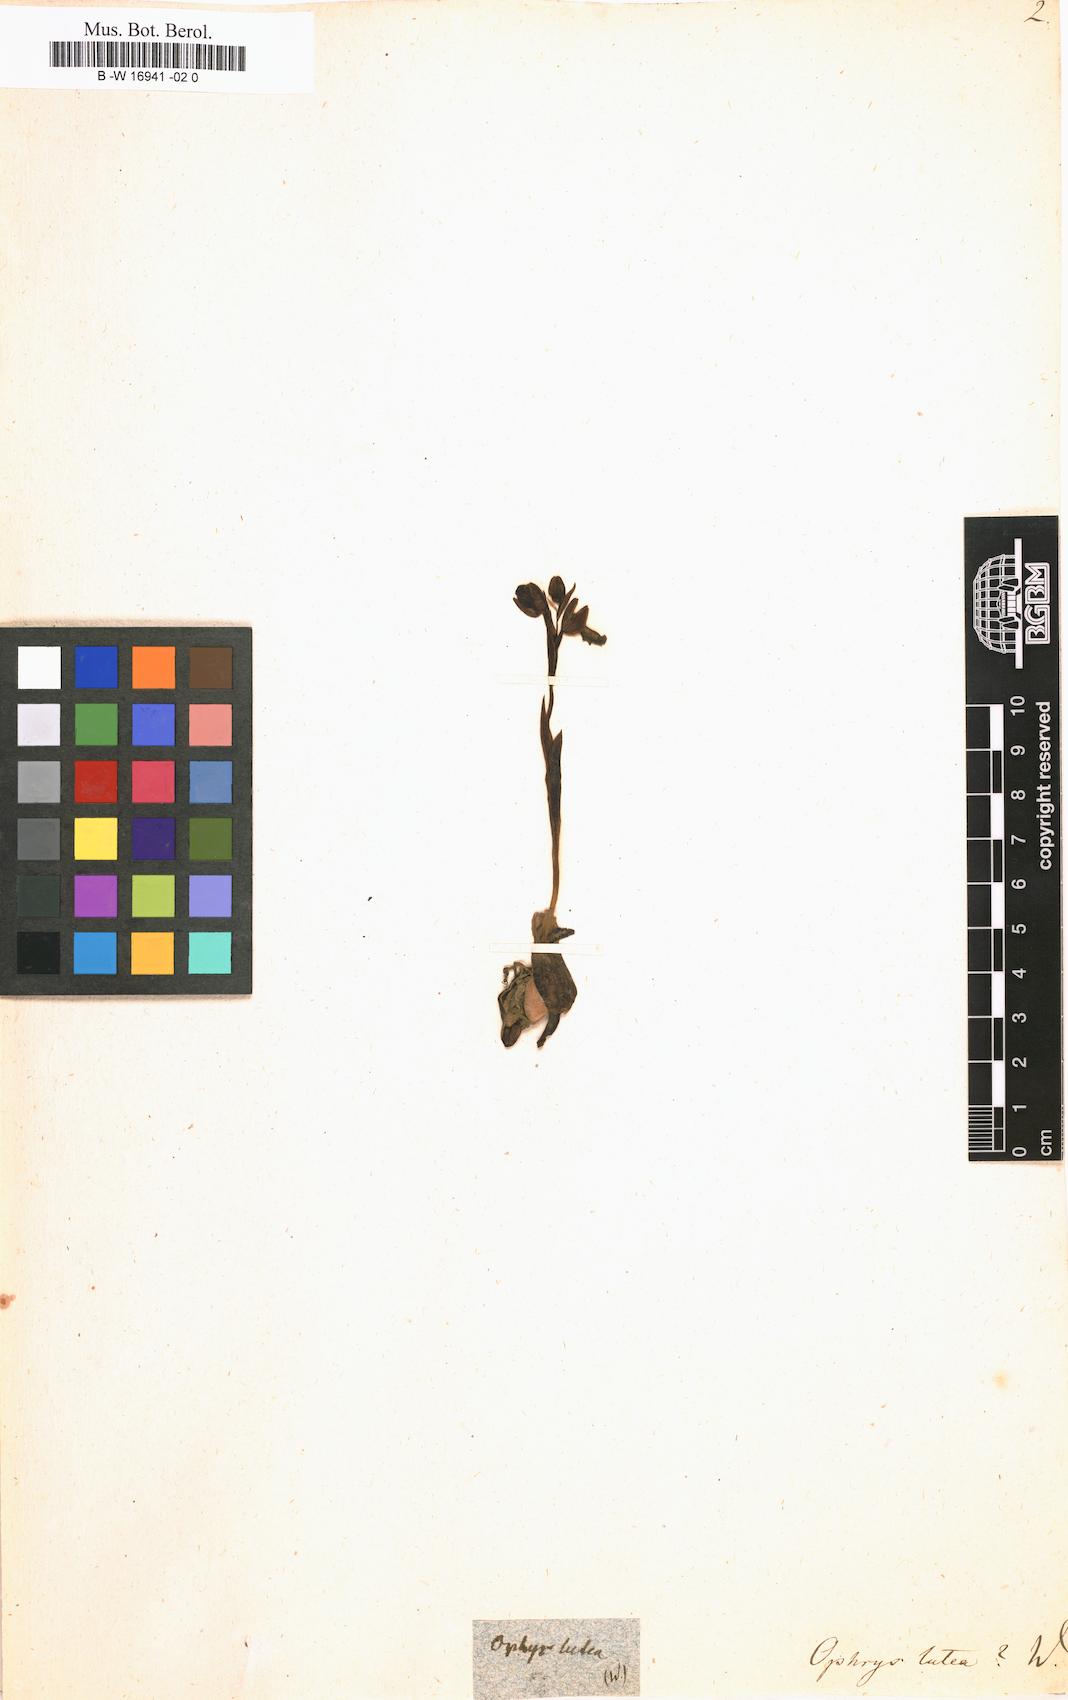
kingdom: Plantae
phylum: Tracheophyta
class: Liliopsida
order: Asparagales
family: Orchidaceae
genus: Ophrys
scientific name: Ophrys lutea
